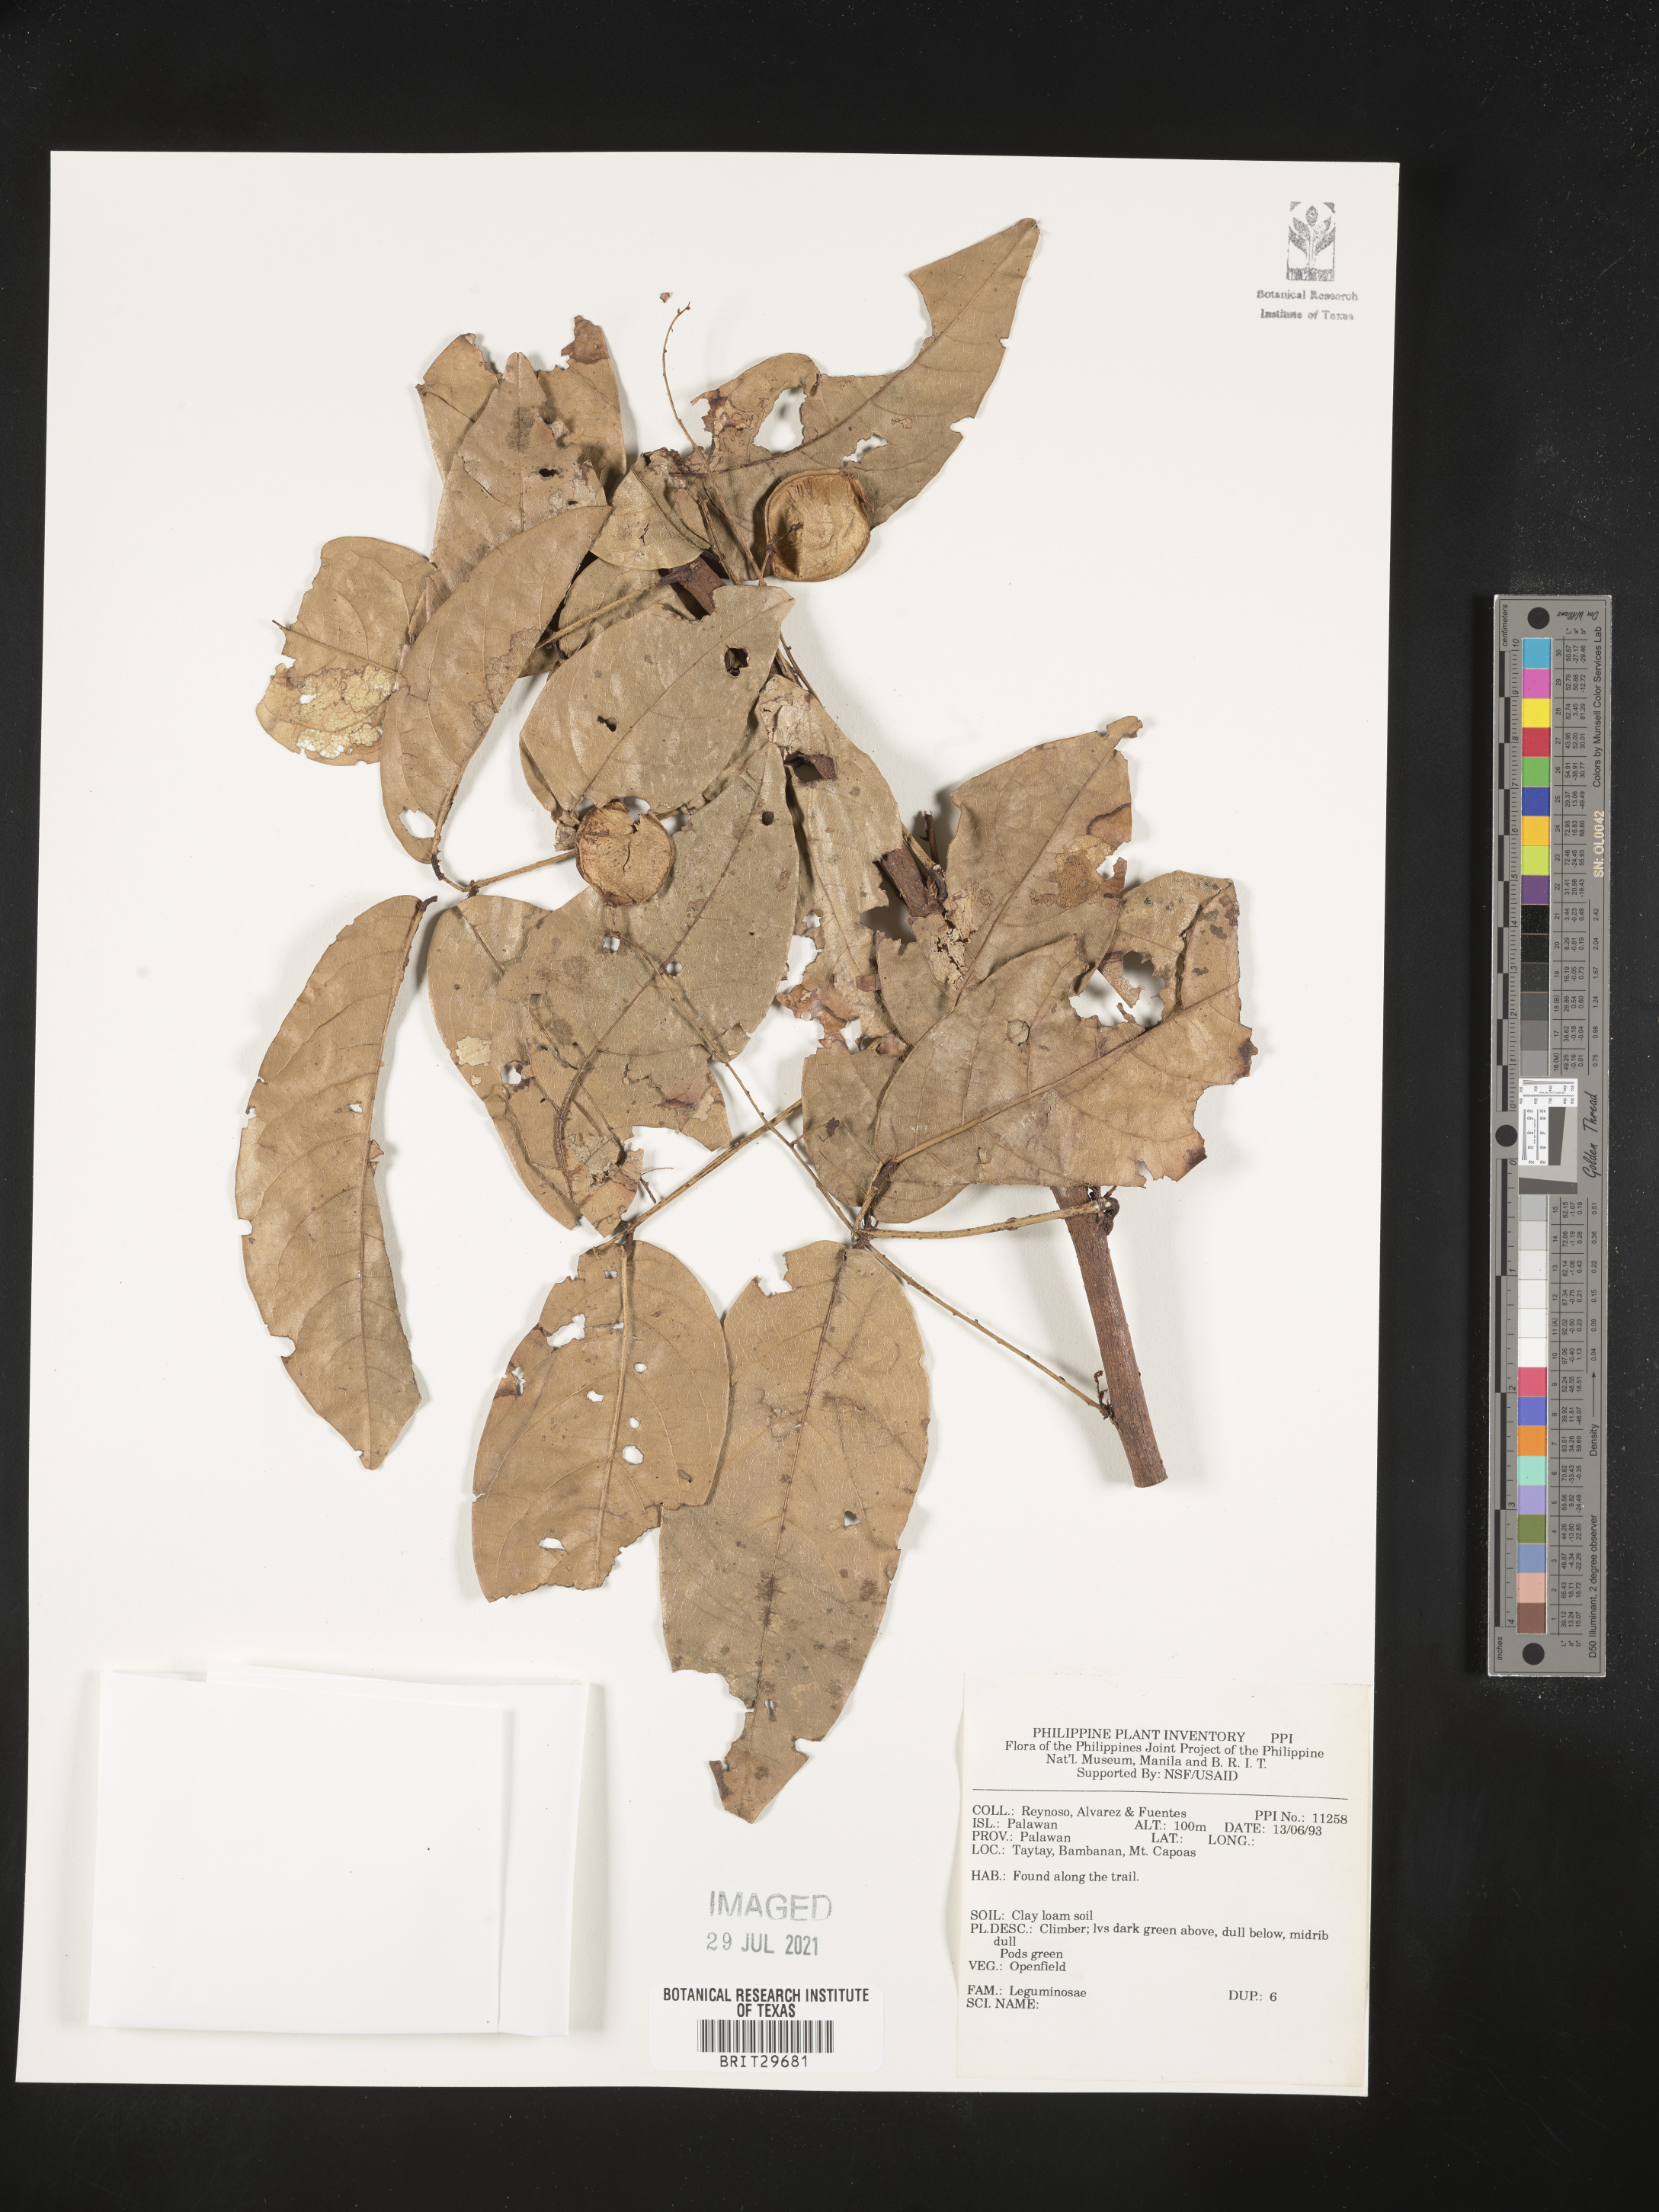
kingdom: Plantae
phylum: Tracheophyta
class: Magnoliopsida
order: Fabales
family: Fabaceae
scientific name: Fabaceae
